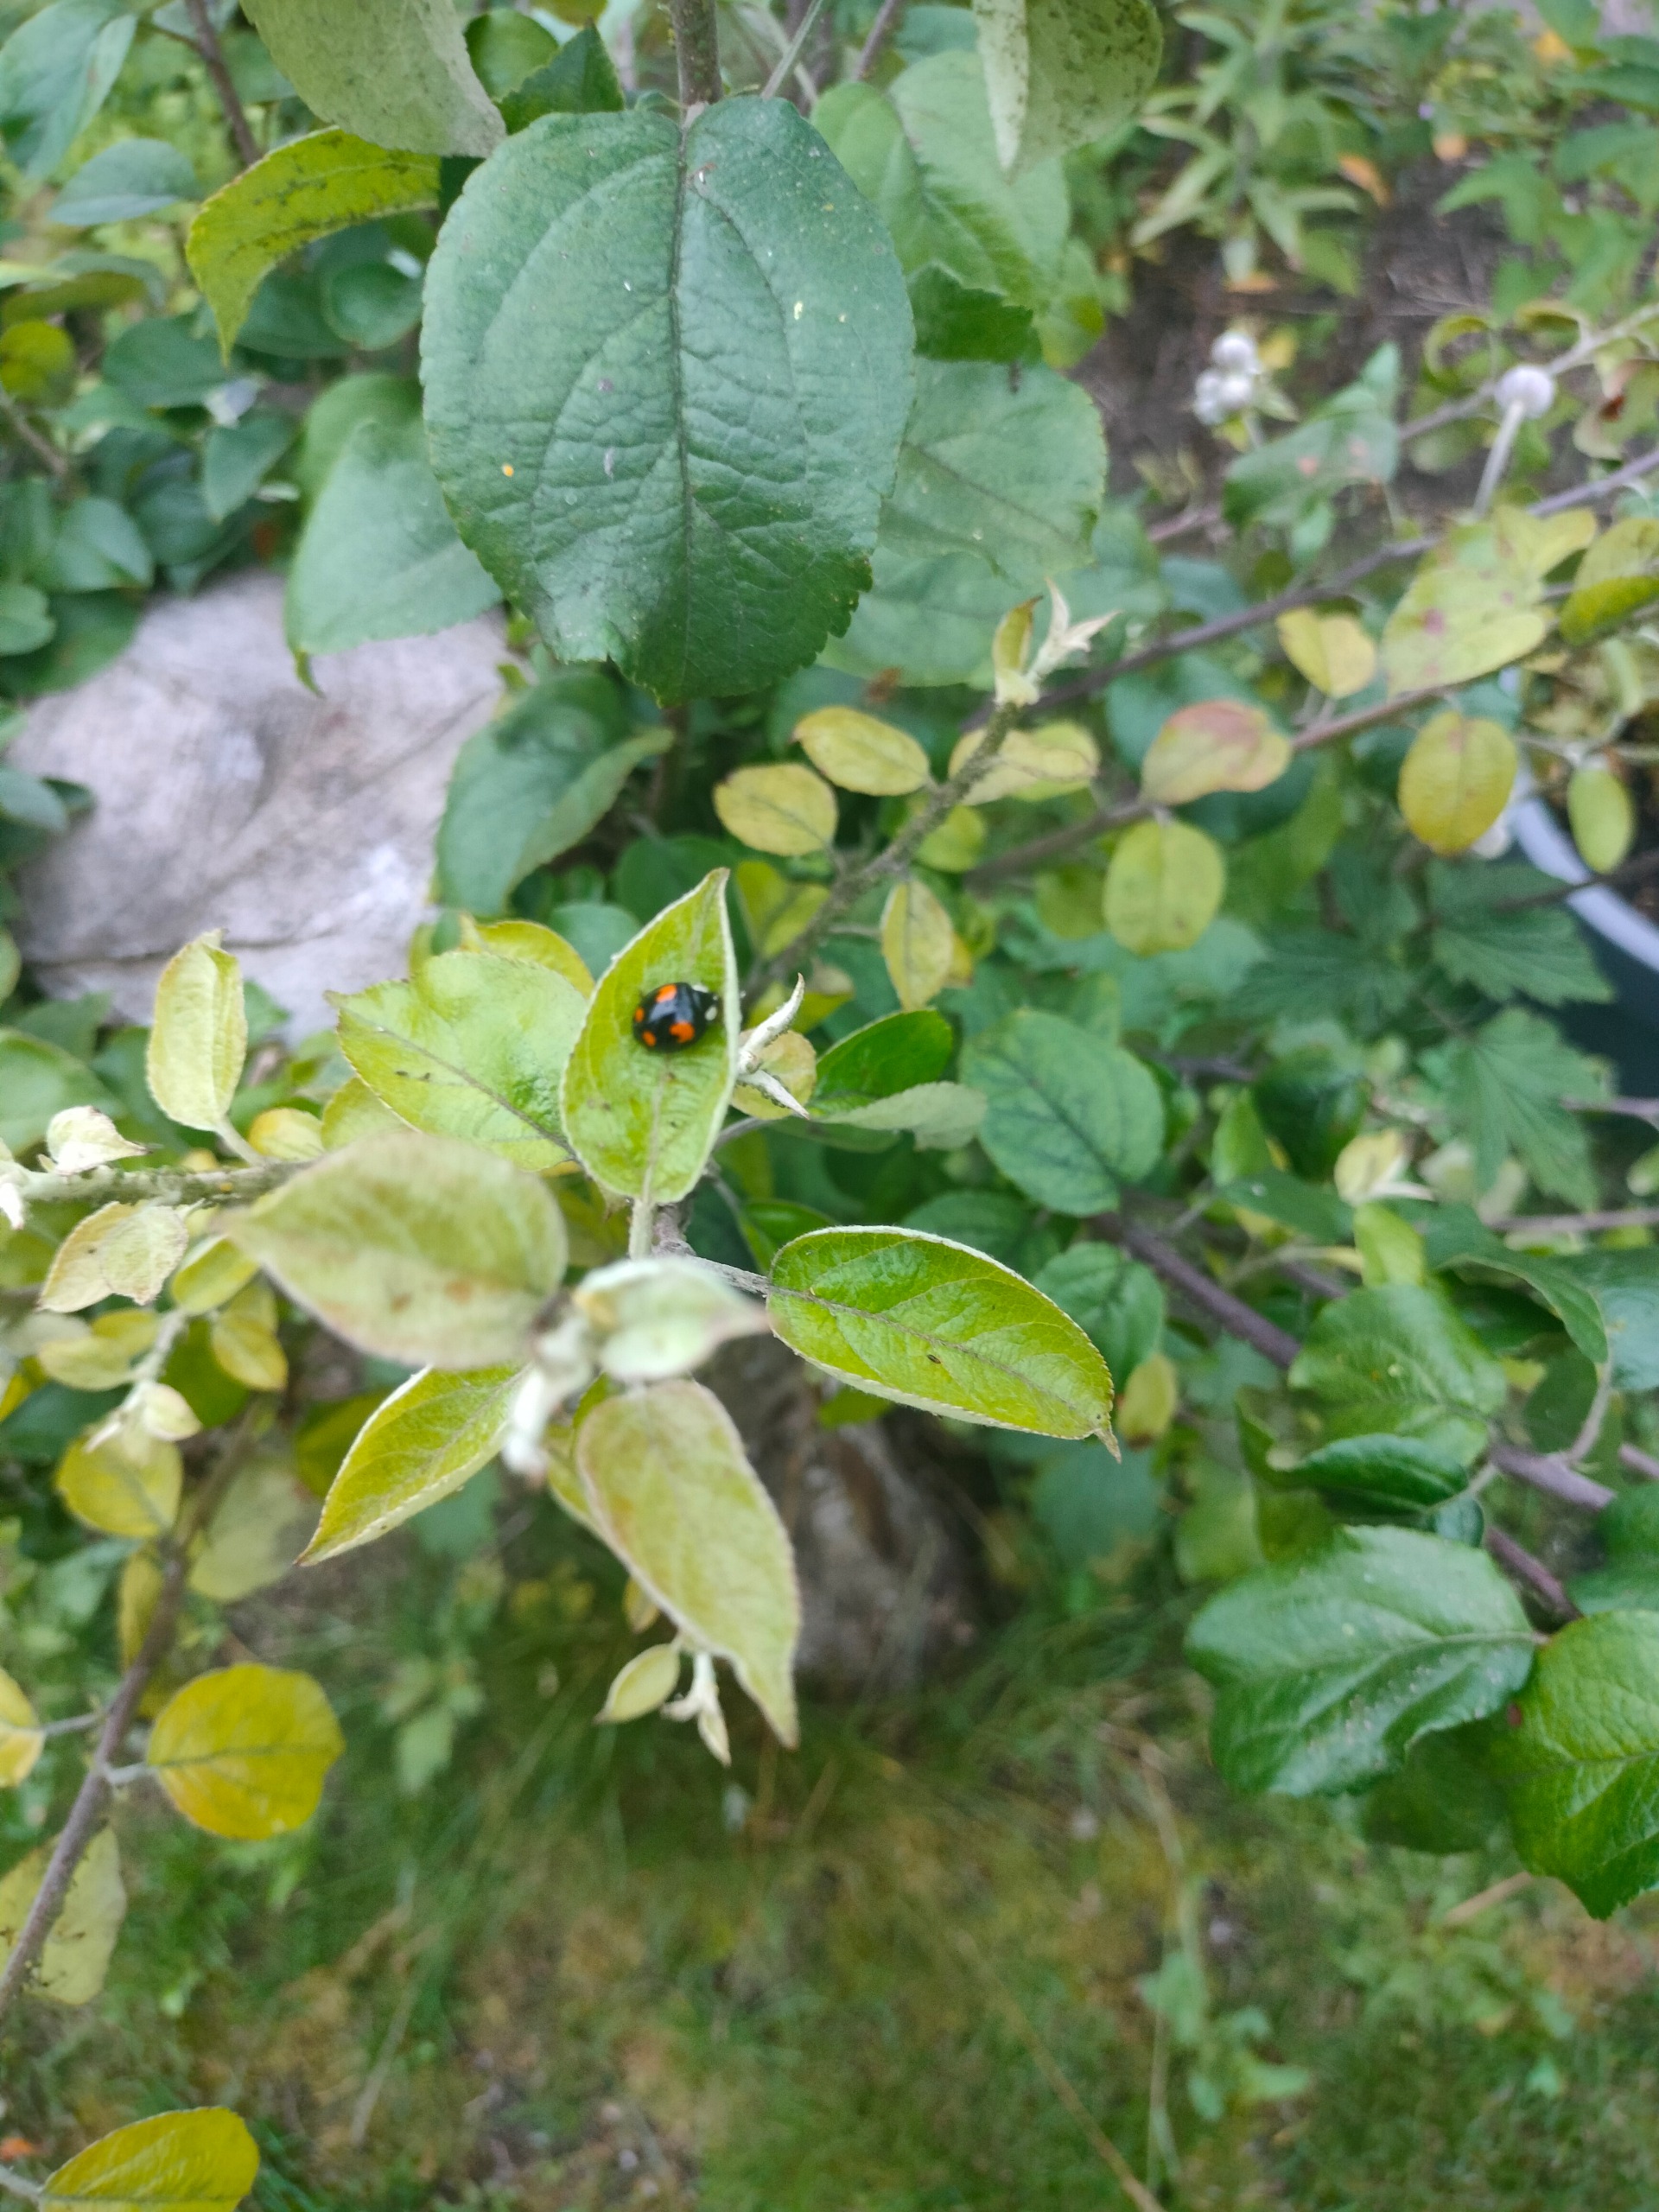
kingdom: Animalia
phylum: Arthropoda
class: Insecta
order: Coleoptera
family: Coccinellidae
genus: Harmonia
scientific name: Harmonia axyridis
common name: Harlekinmariehøne
